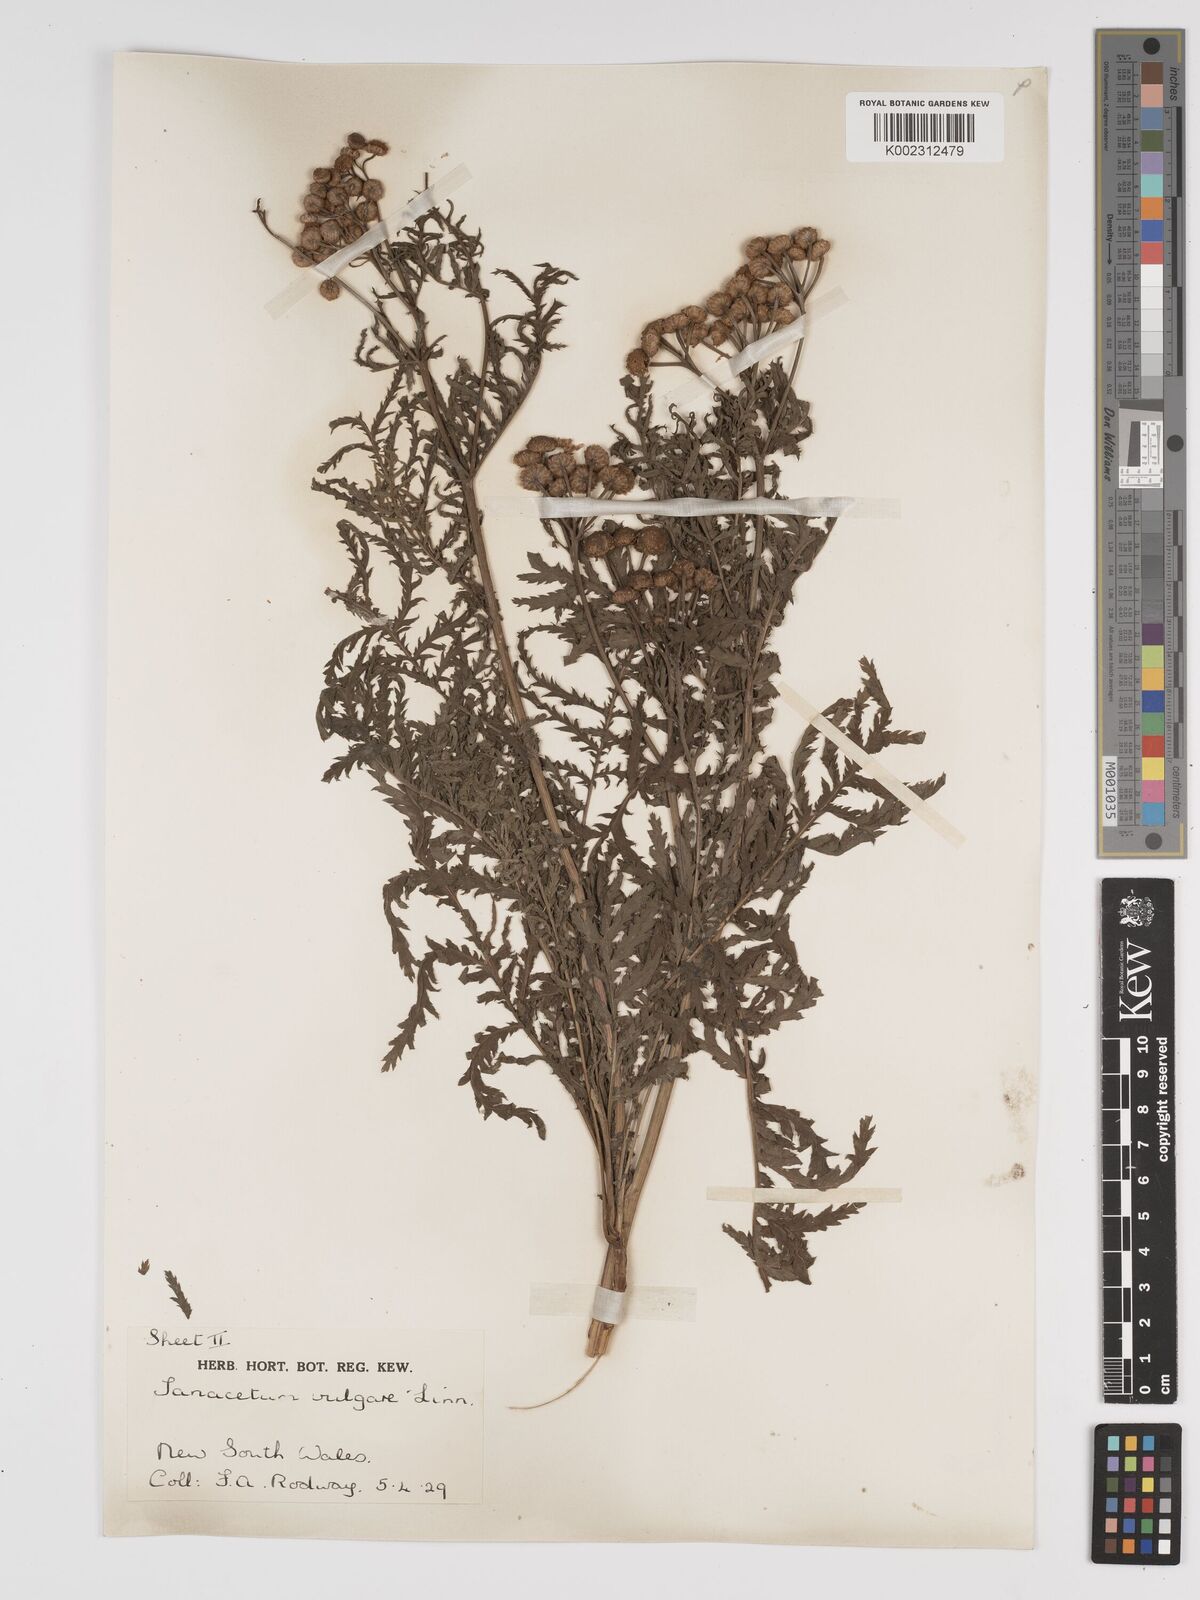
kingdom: Plantae
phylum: Tracheophyta
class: Magnoliopsida
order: Asterales
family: Asteraceae
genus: Tanacetum
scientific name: Tanacetum vulgare
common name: Common tansy
